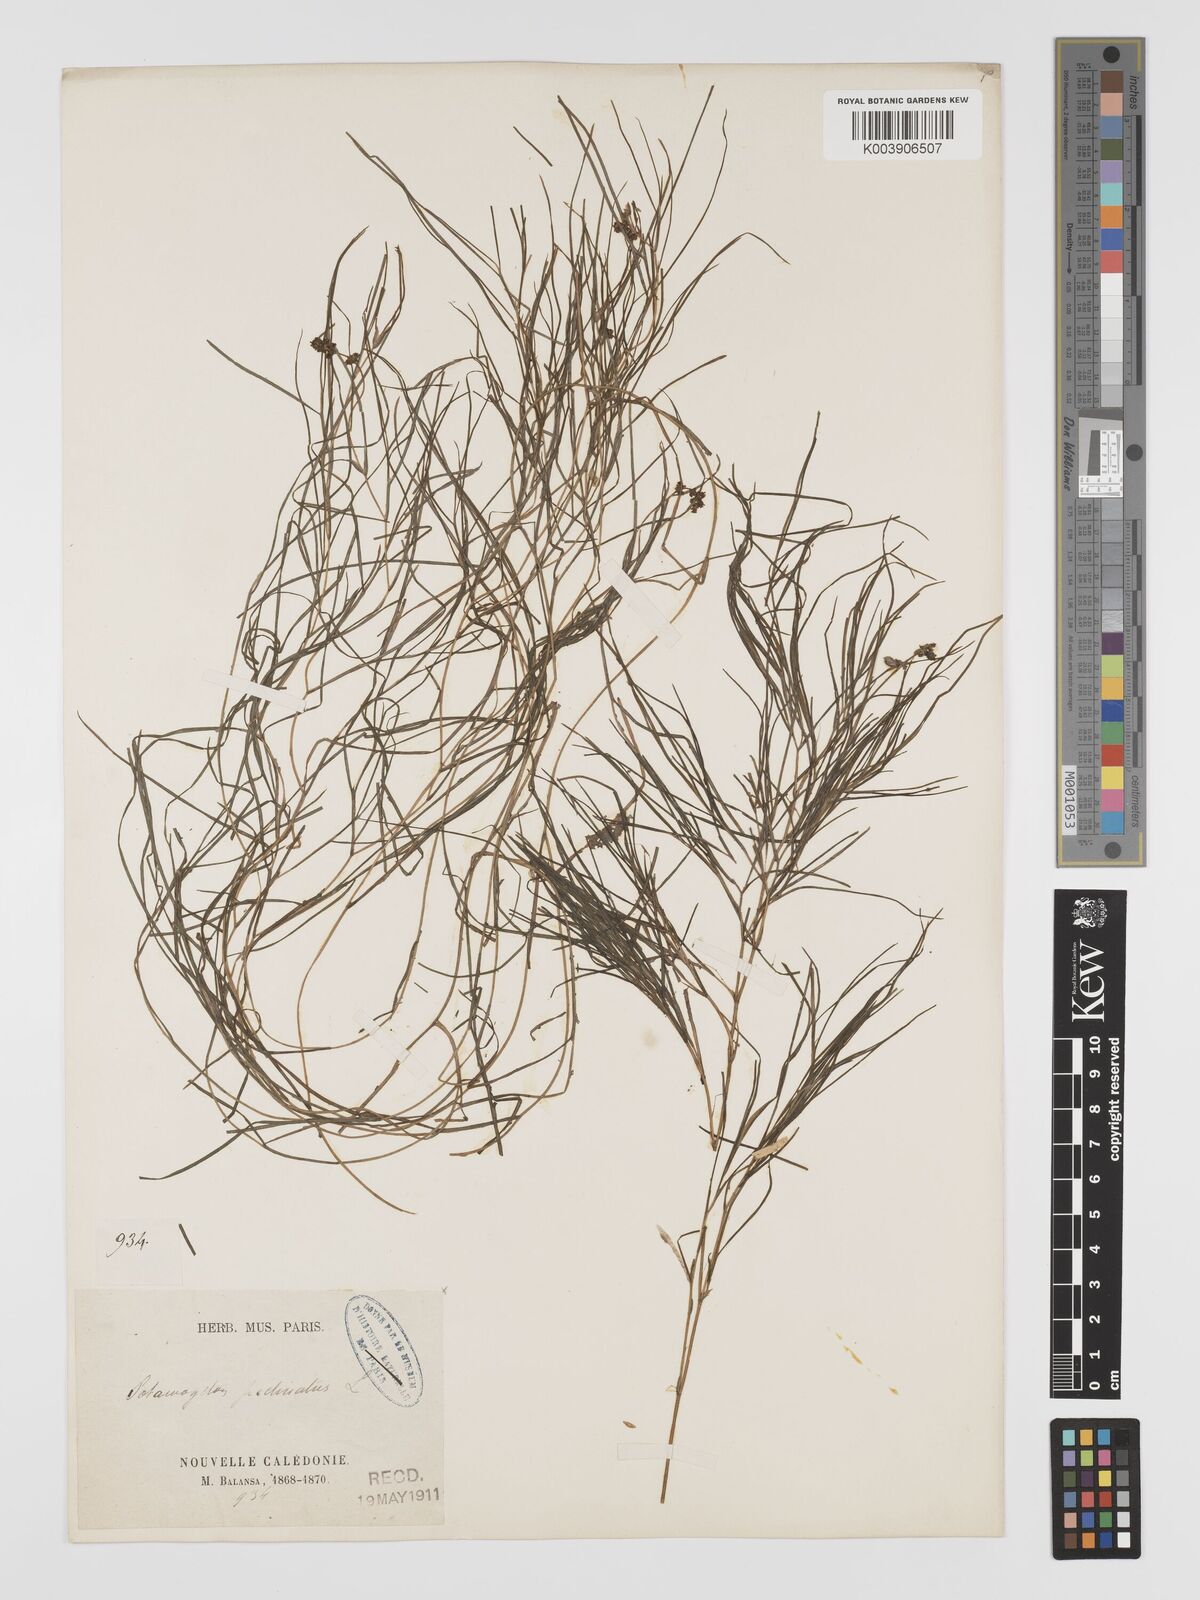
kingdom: Plantae
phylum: Tracheophyta
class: Liliopsida
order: Alismatales
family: Potamogetonaceae
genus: Stuckenia
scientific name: Stuckenia pectinata
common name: Sago pondweed
